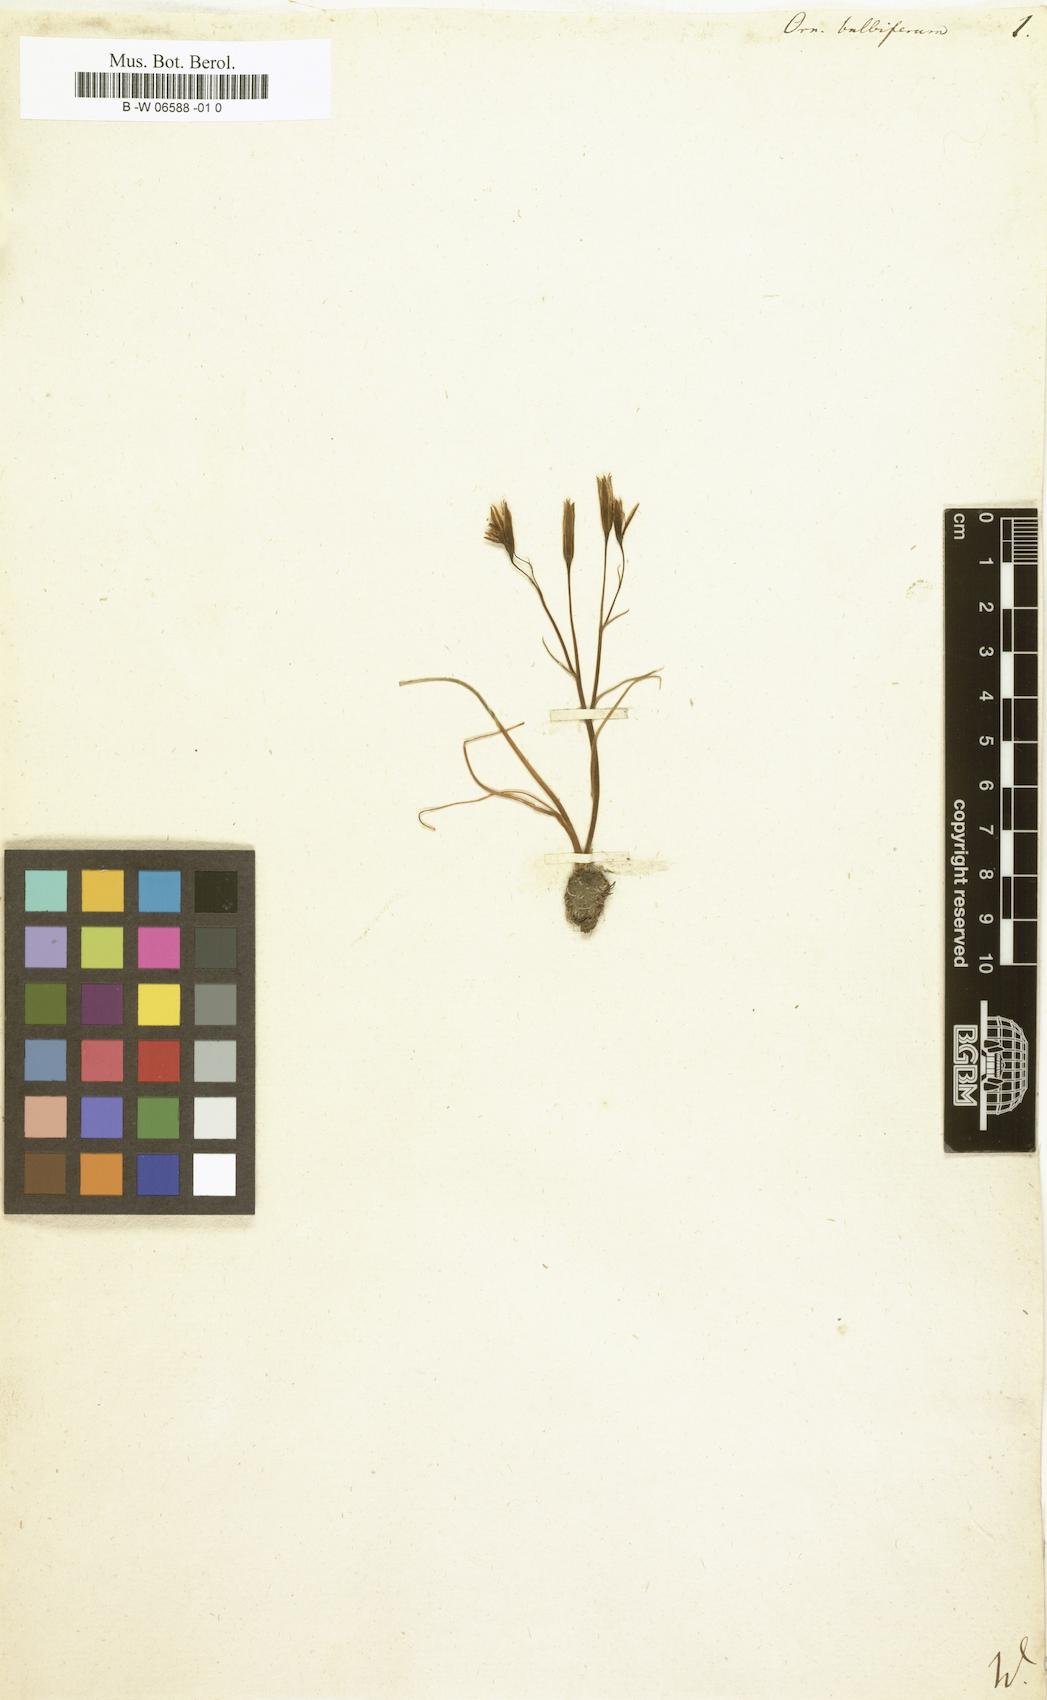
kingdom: Plantae
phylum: Tracheophyta
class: Liliopsida
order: Liliales
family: Liliaceae
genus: Gagea
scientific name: Gagea bulbifera
